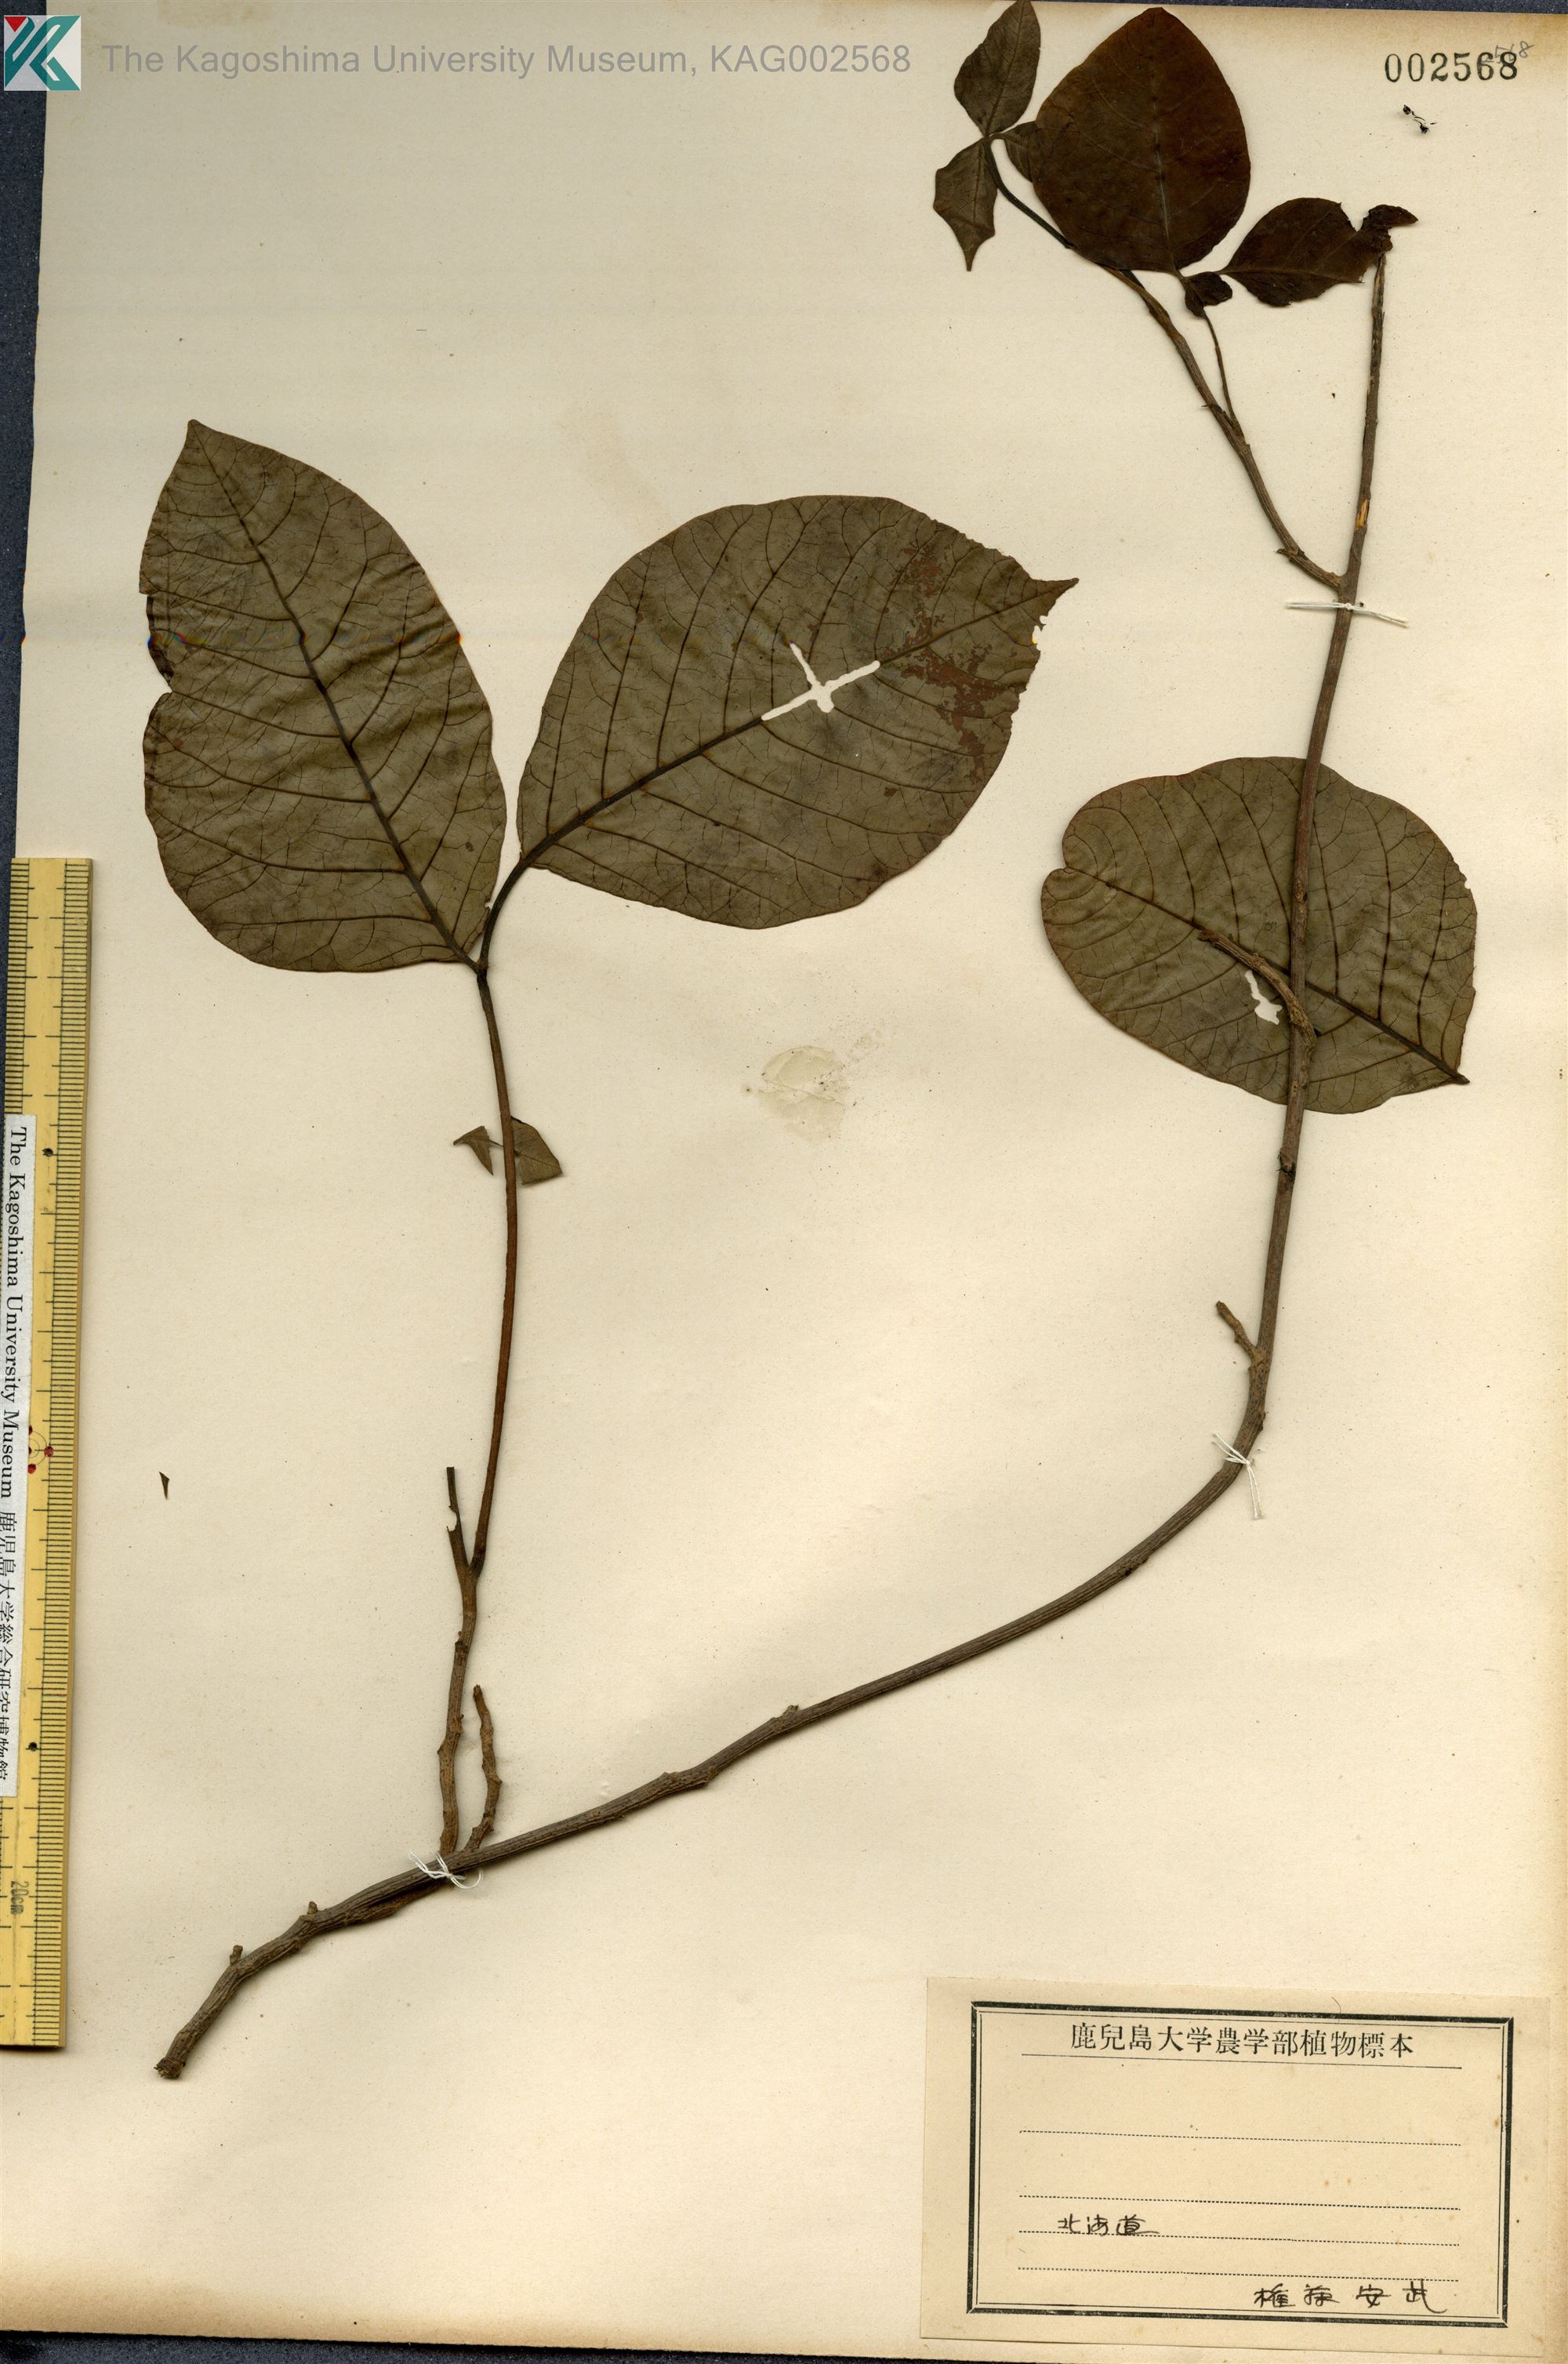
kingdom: Plantae
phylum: Tracheophyta
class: Magnoliopsida
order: Sapindales
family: Anacardiaceae
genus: Toxicodendron
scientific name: Toxicodendron orientale
